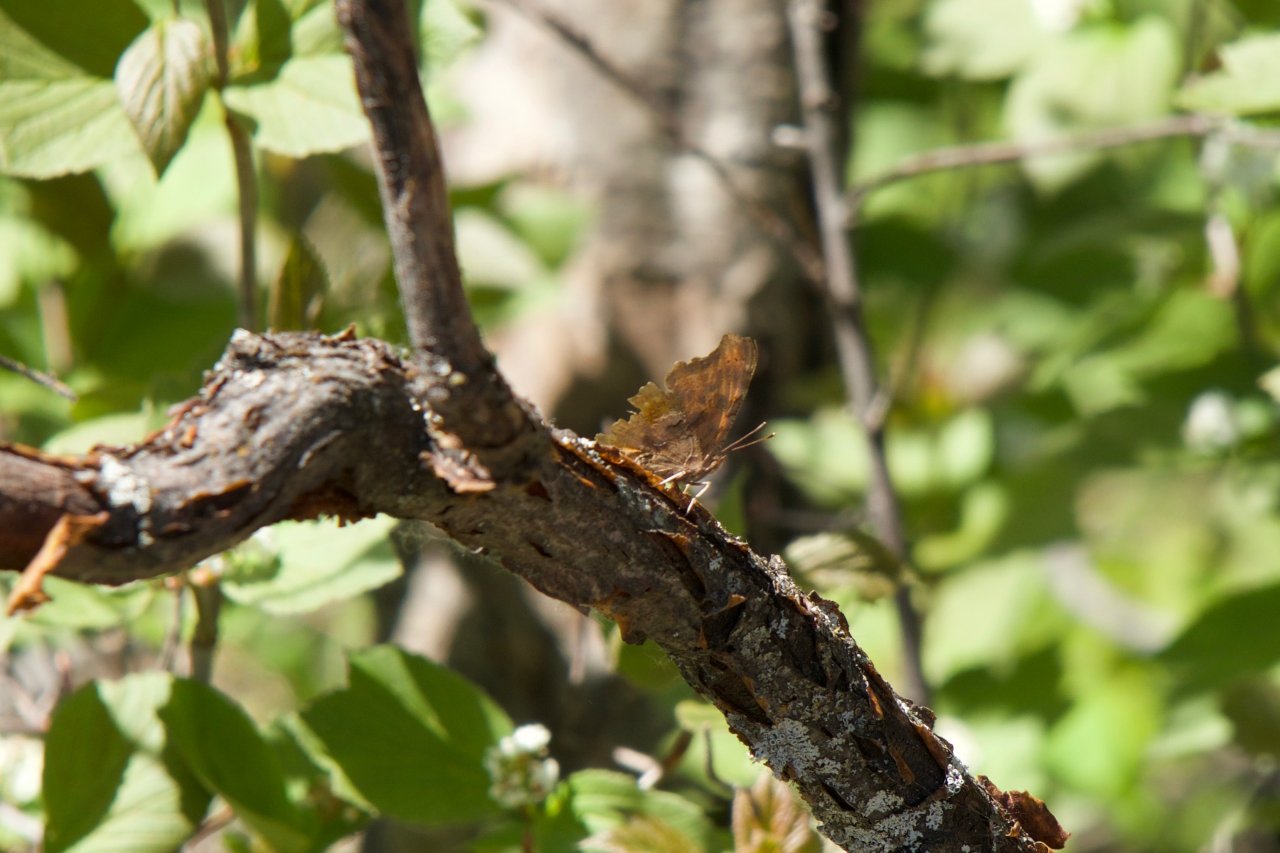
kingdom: Animalia
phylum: Arthropoda
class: Insecta
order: Lepidoptera
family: Nymphalidae
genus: Polygonia
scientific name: Polygonia
